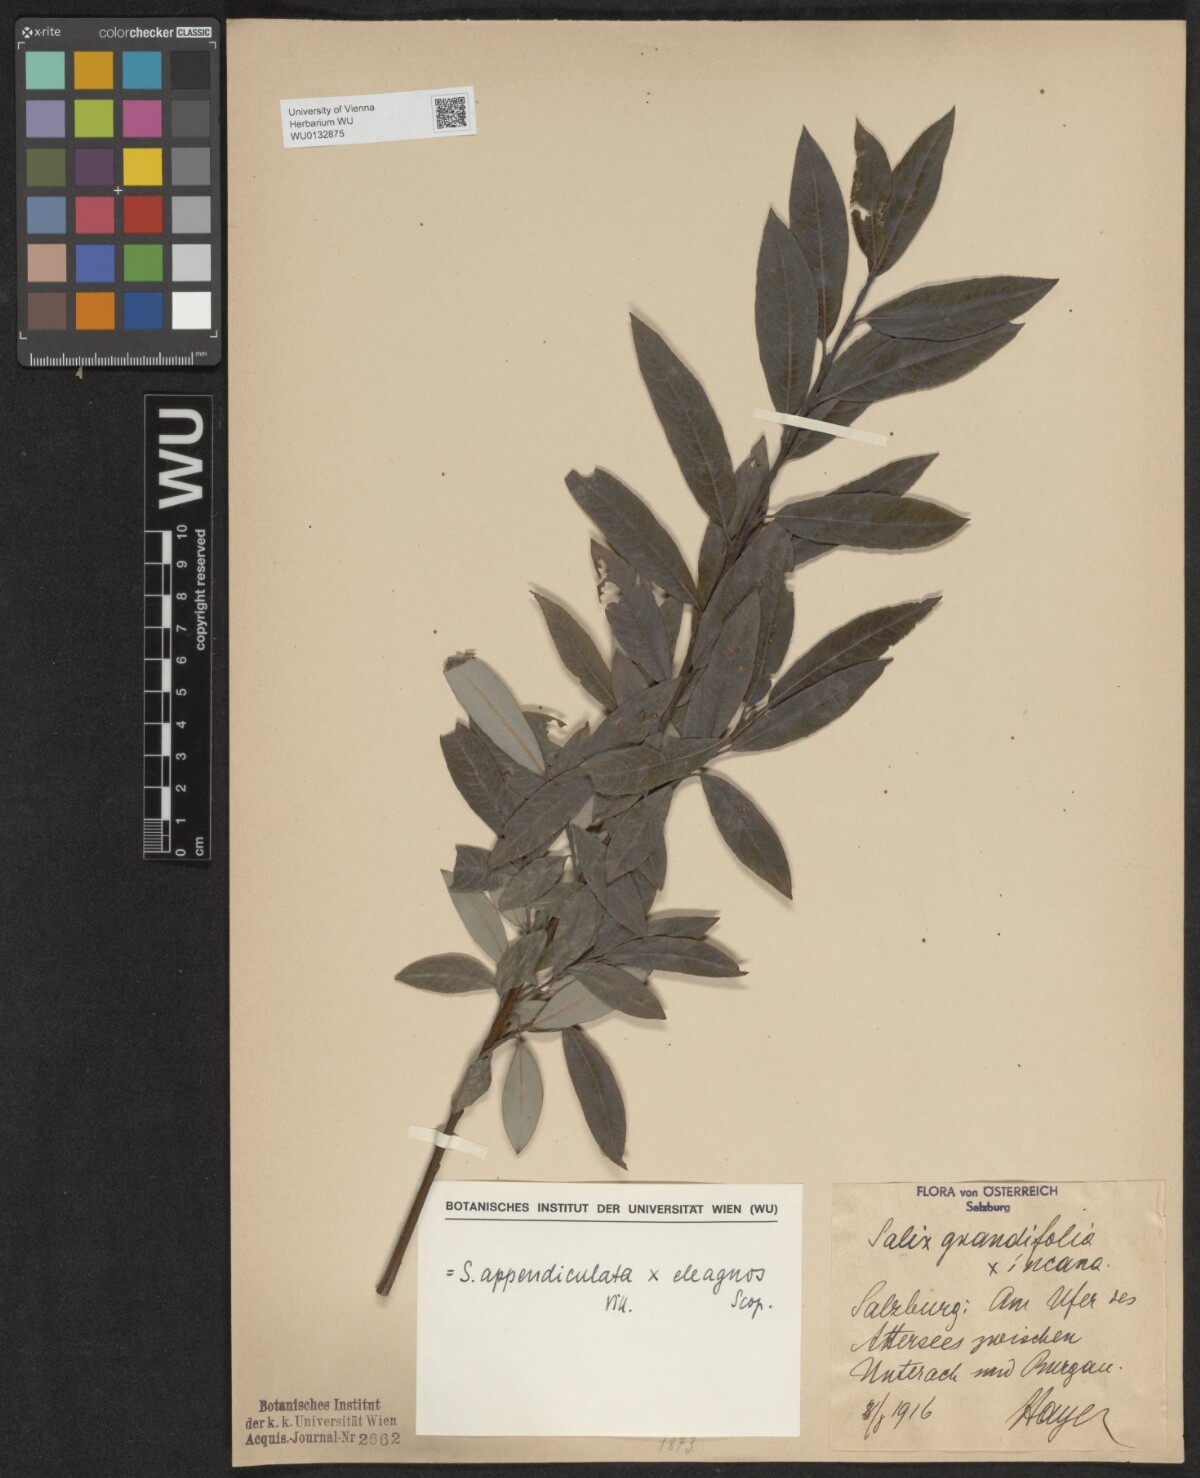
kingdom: Plantae
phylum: Tracheophyta
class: Magnoliopsida
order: Malpighiales
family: Salicaceae
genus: Salix
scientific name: Salix intermedia
